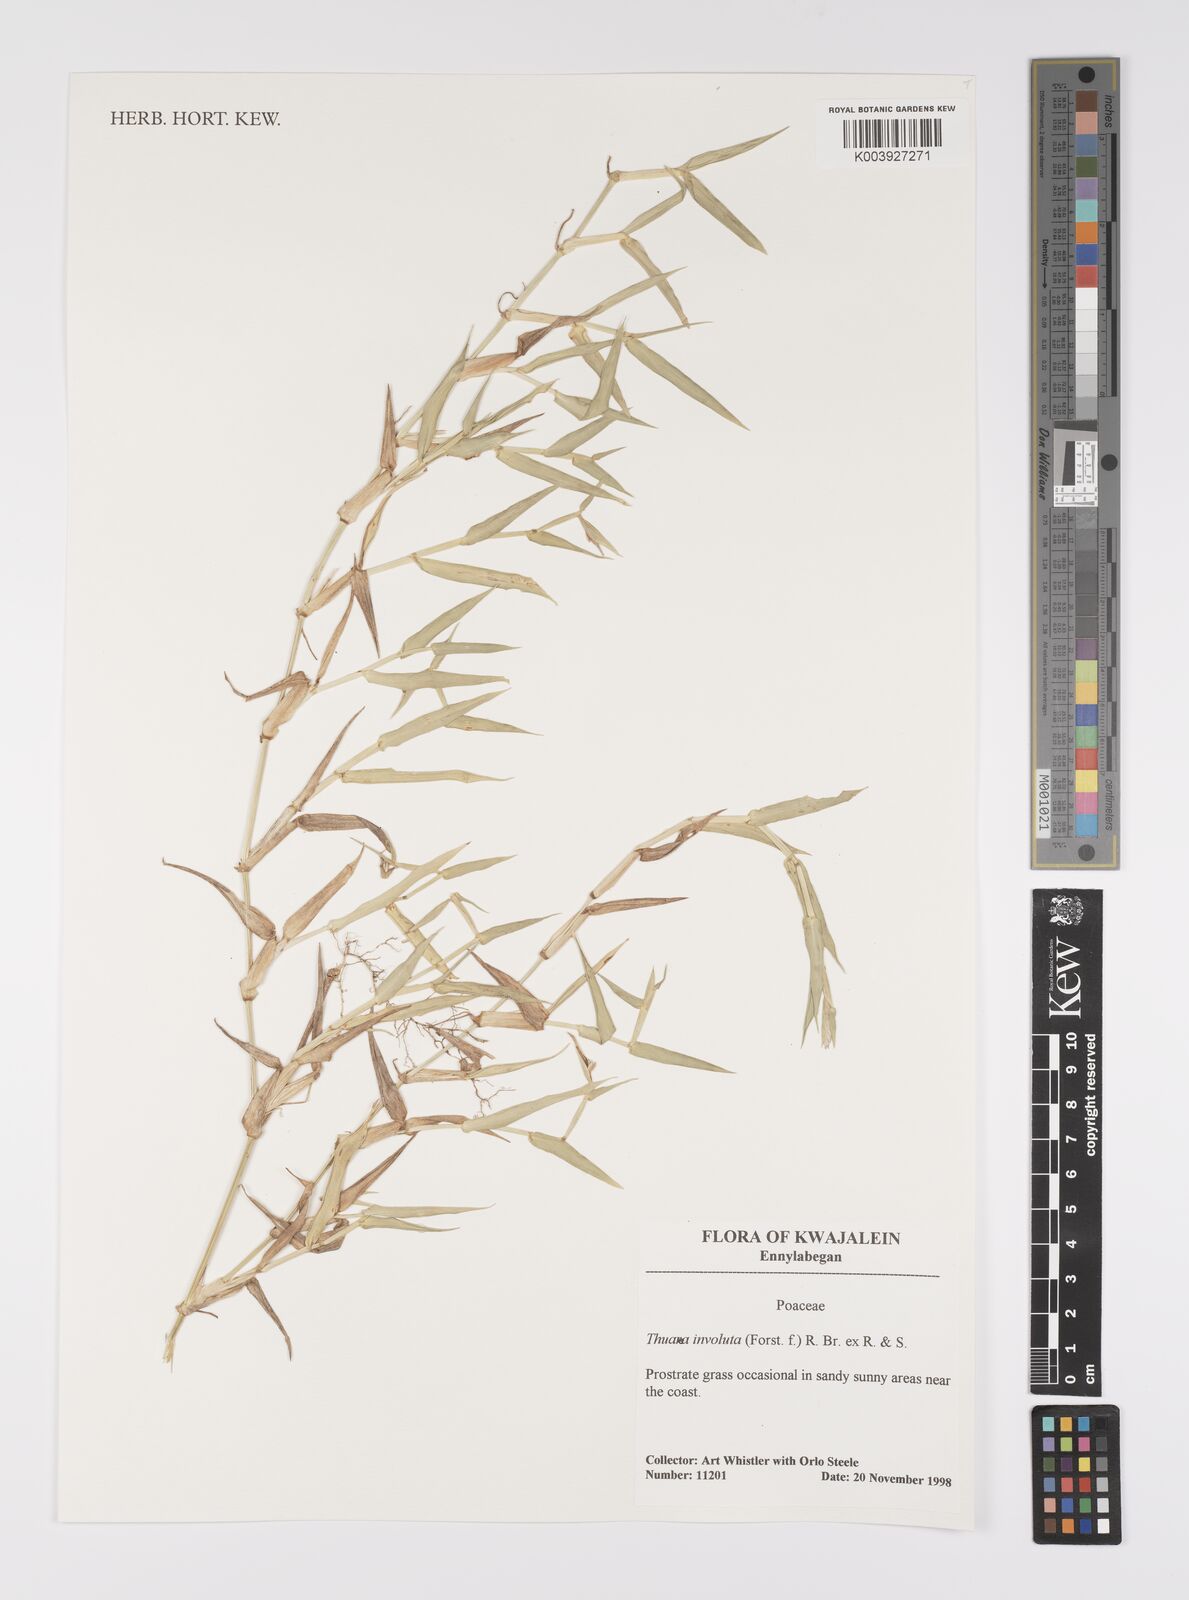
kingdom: Plantae
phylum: Tracheophyta
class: Liliopsida
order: Poales
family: Poaceae
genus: Thuarea
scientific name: Thuarea involuta
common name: Tropical beach grass
